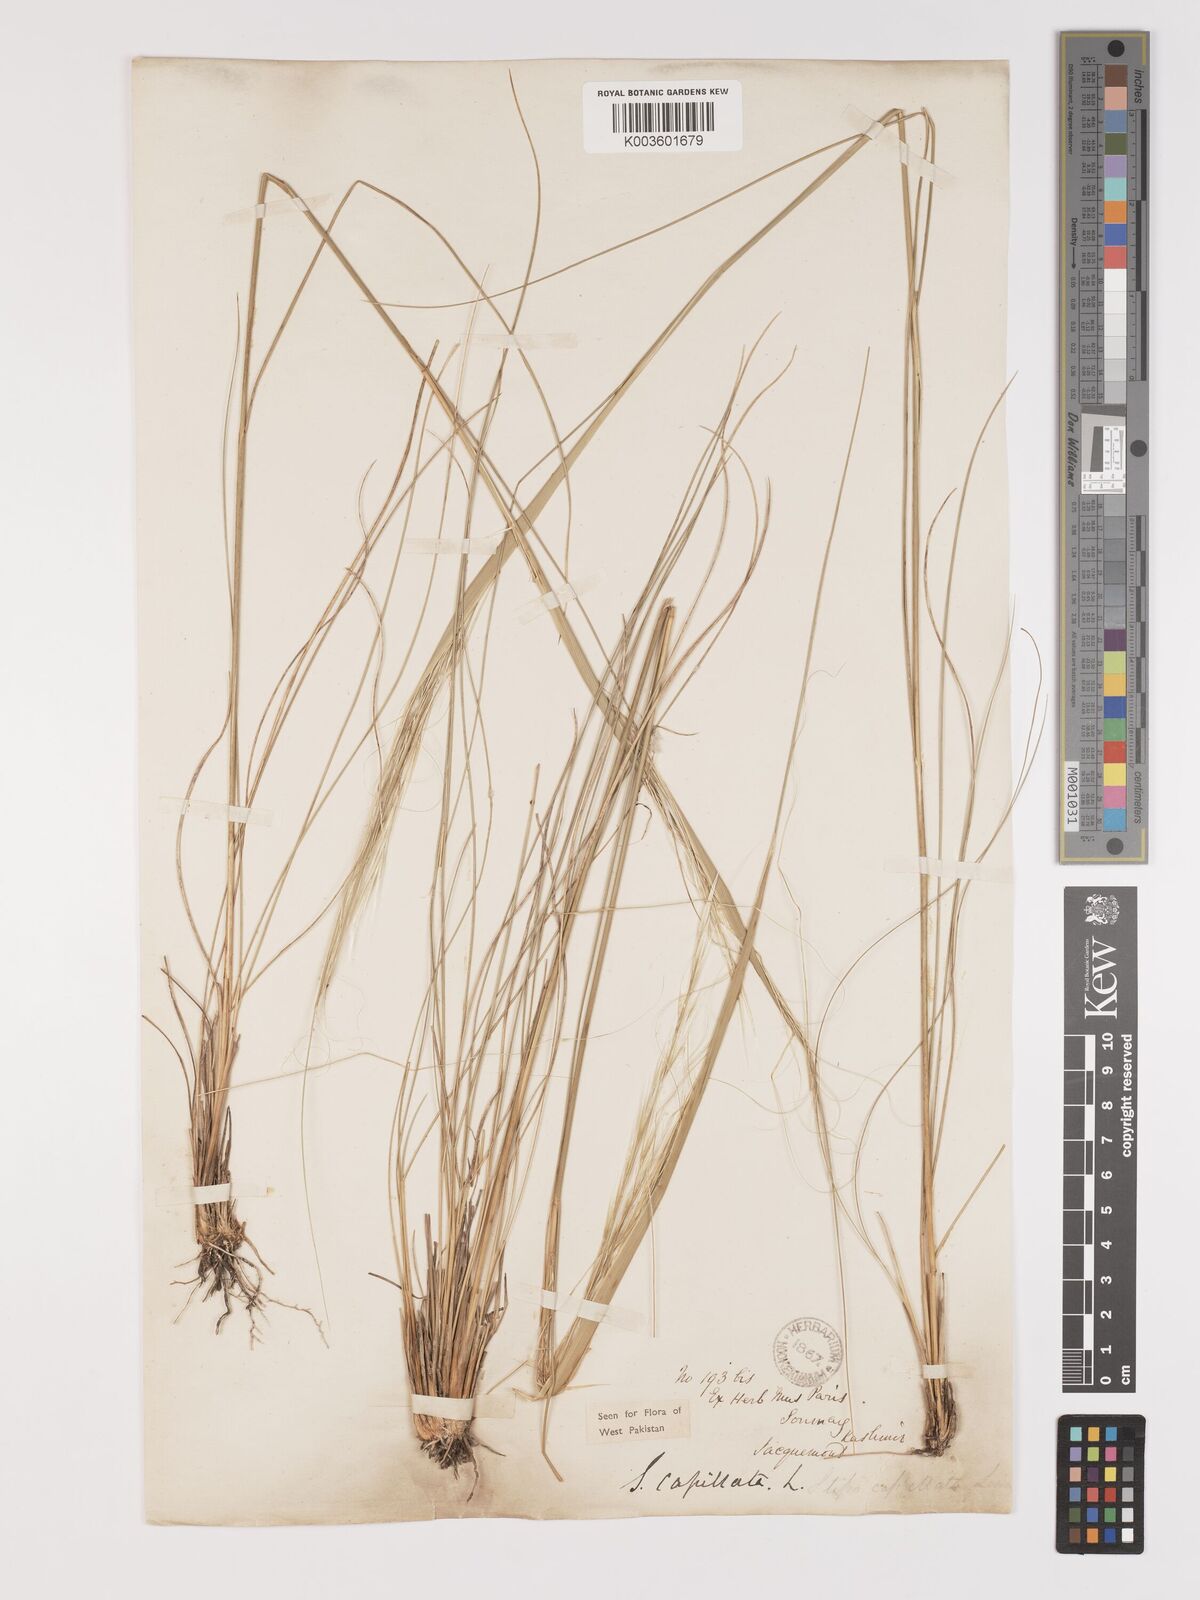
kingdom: Plantae
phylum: Tracheophyta
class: Liliopsida
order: Poales
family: Poaceae
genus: Stipa
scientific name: Stipa capillata
